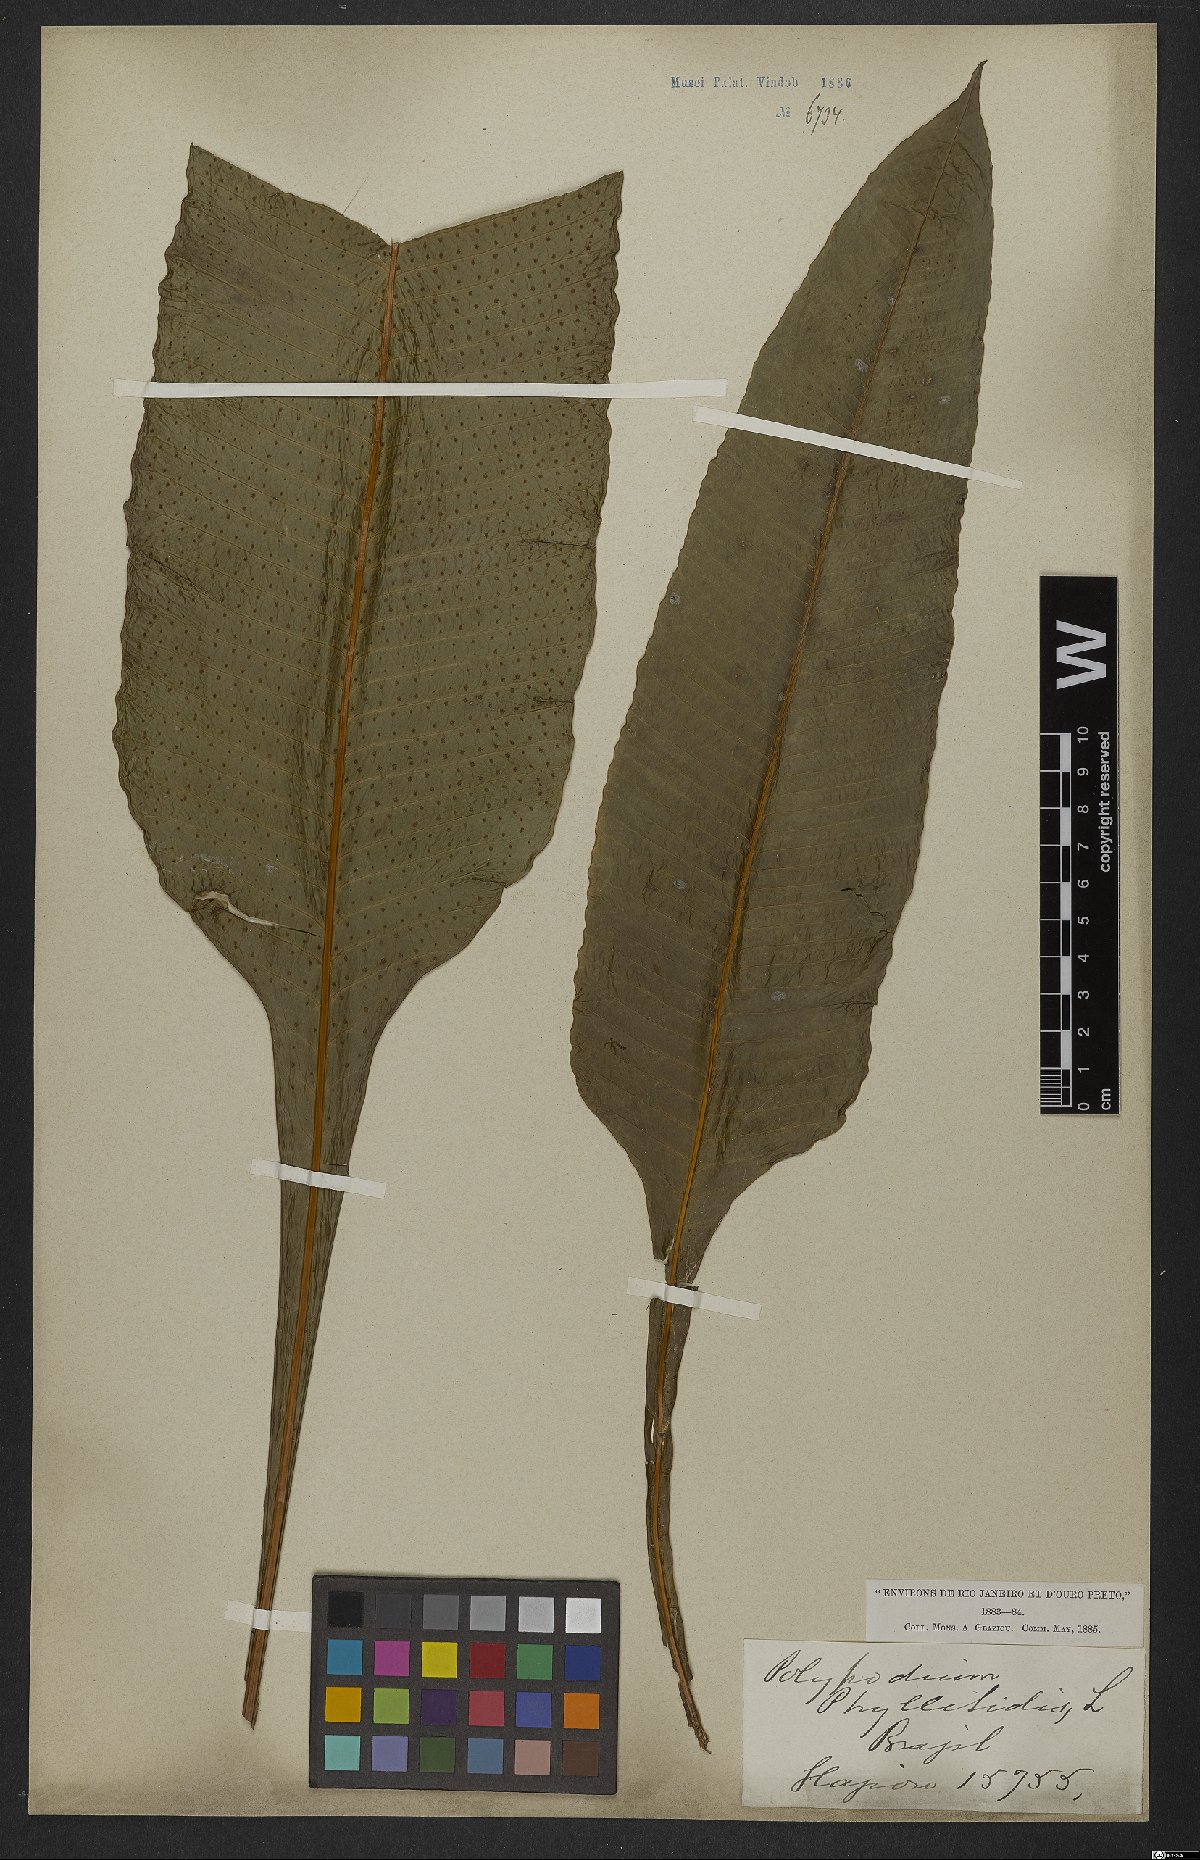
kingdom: Plantae
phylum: Tracheophyta
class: Polypodiopsida
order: Polypodiales
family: Polypodiaceae
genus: Campyloneurum
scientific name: Campyloneurum phyllitidis
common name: Cow-tongue fern
